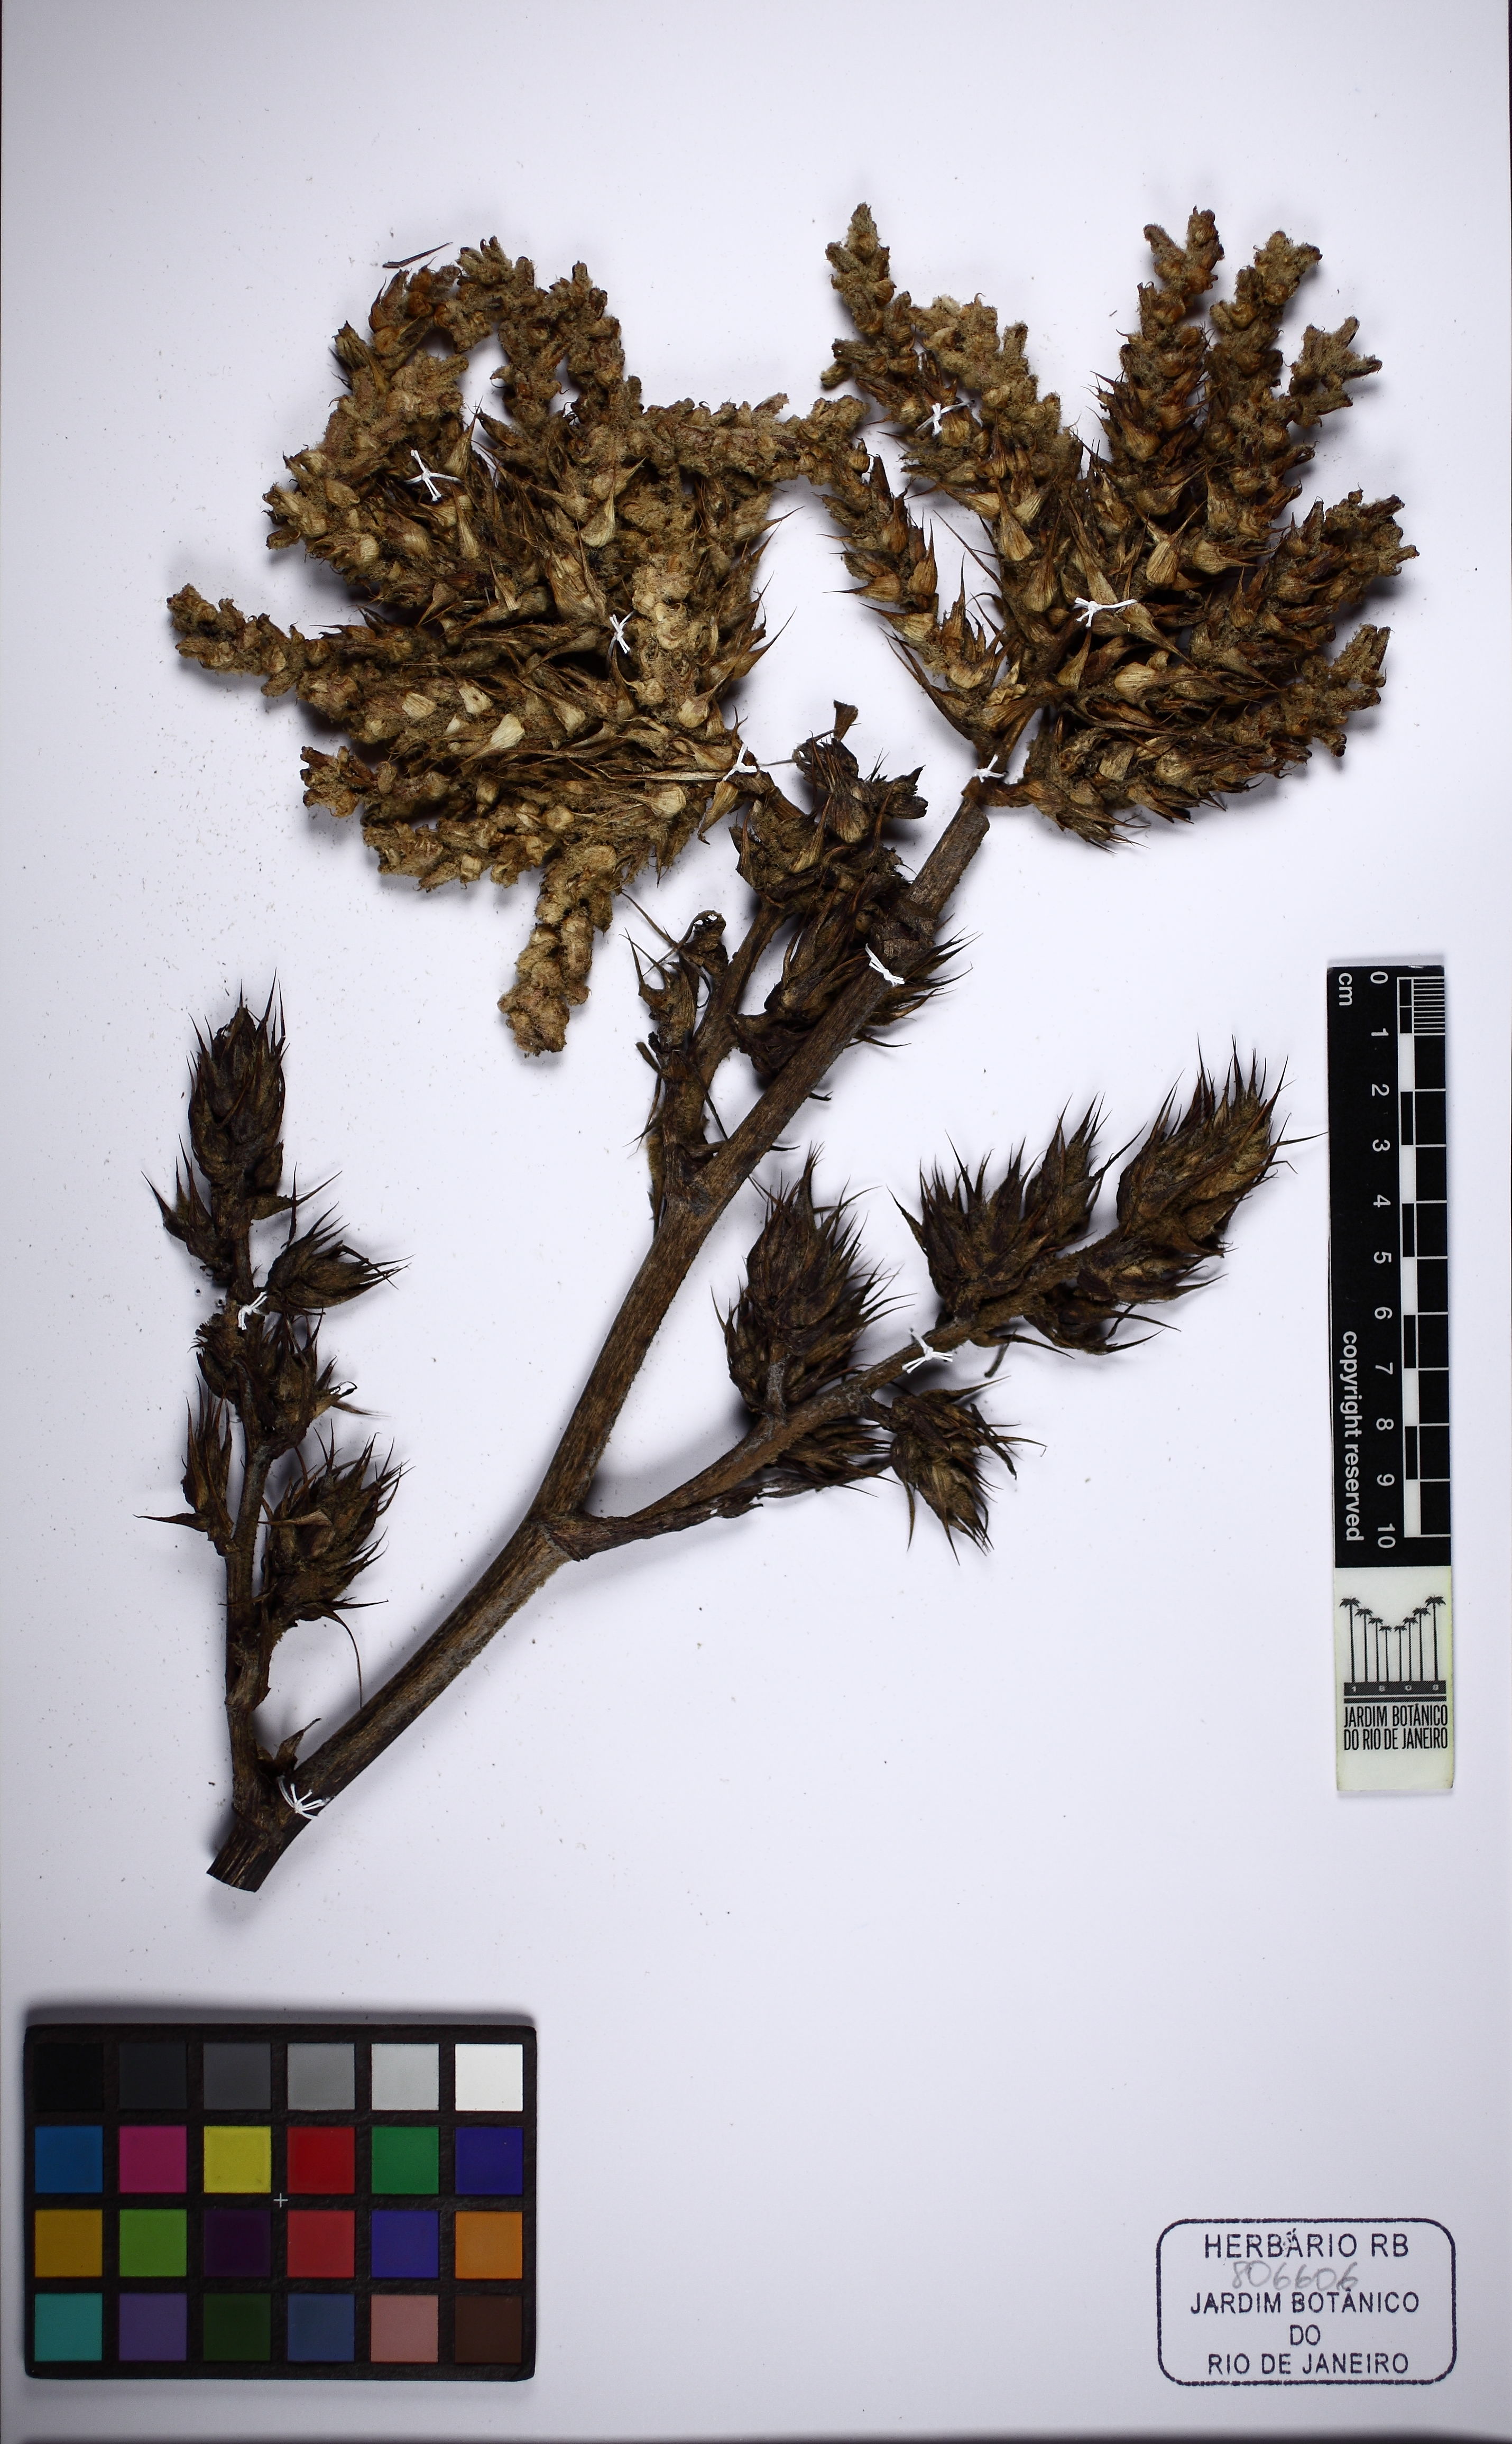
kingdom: Plantae
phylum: Tracheophyta
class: Liliopsida
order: Poales
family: Bromeliaceae
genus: Hohenbergia
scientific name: Hohenbergia horrida
